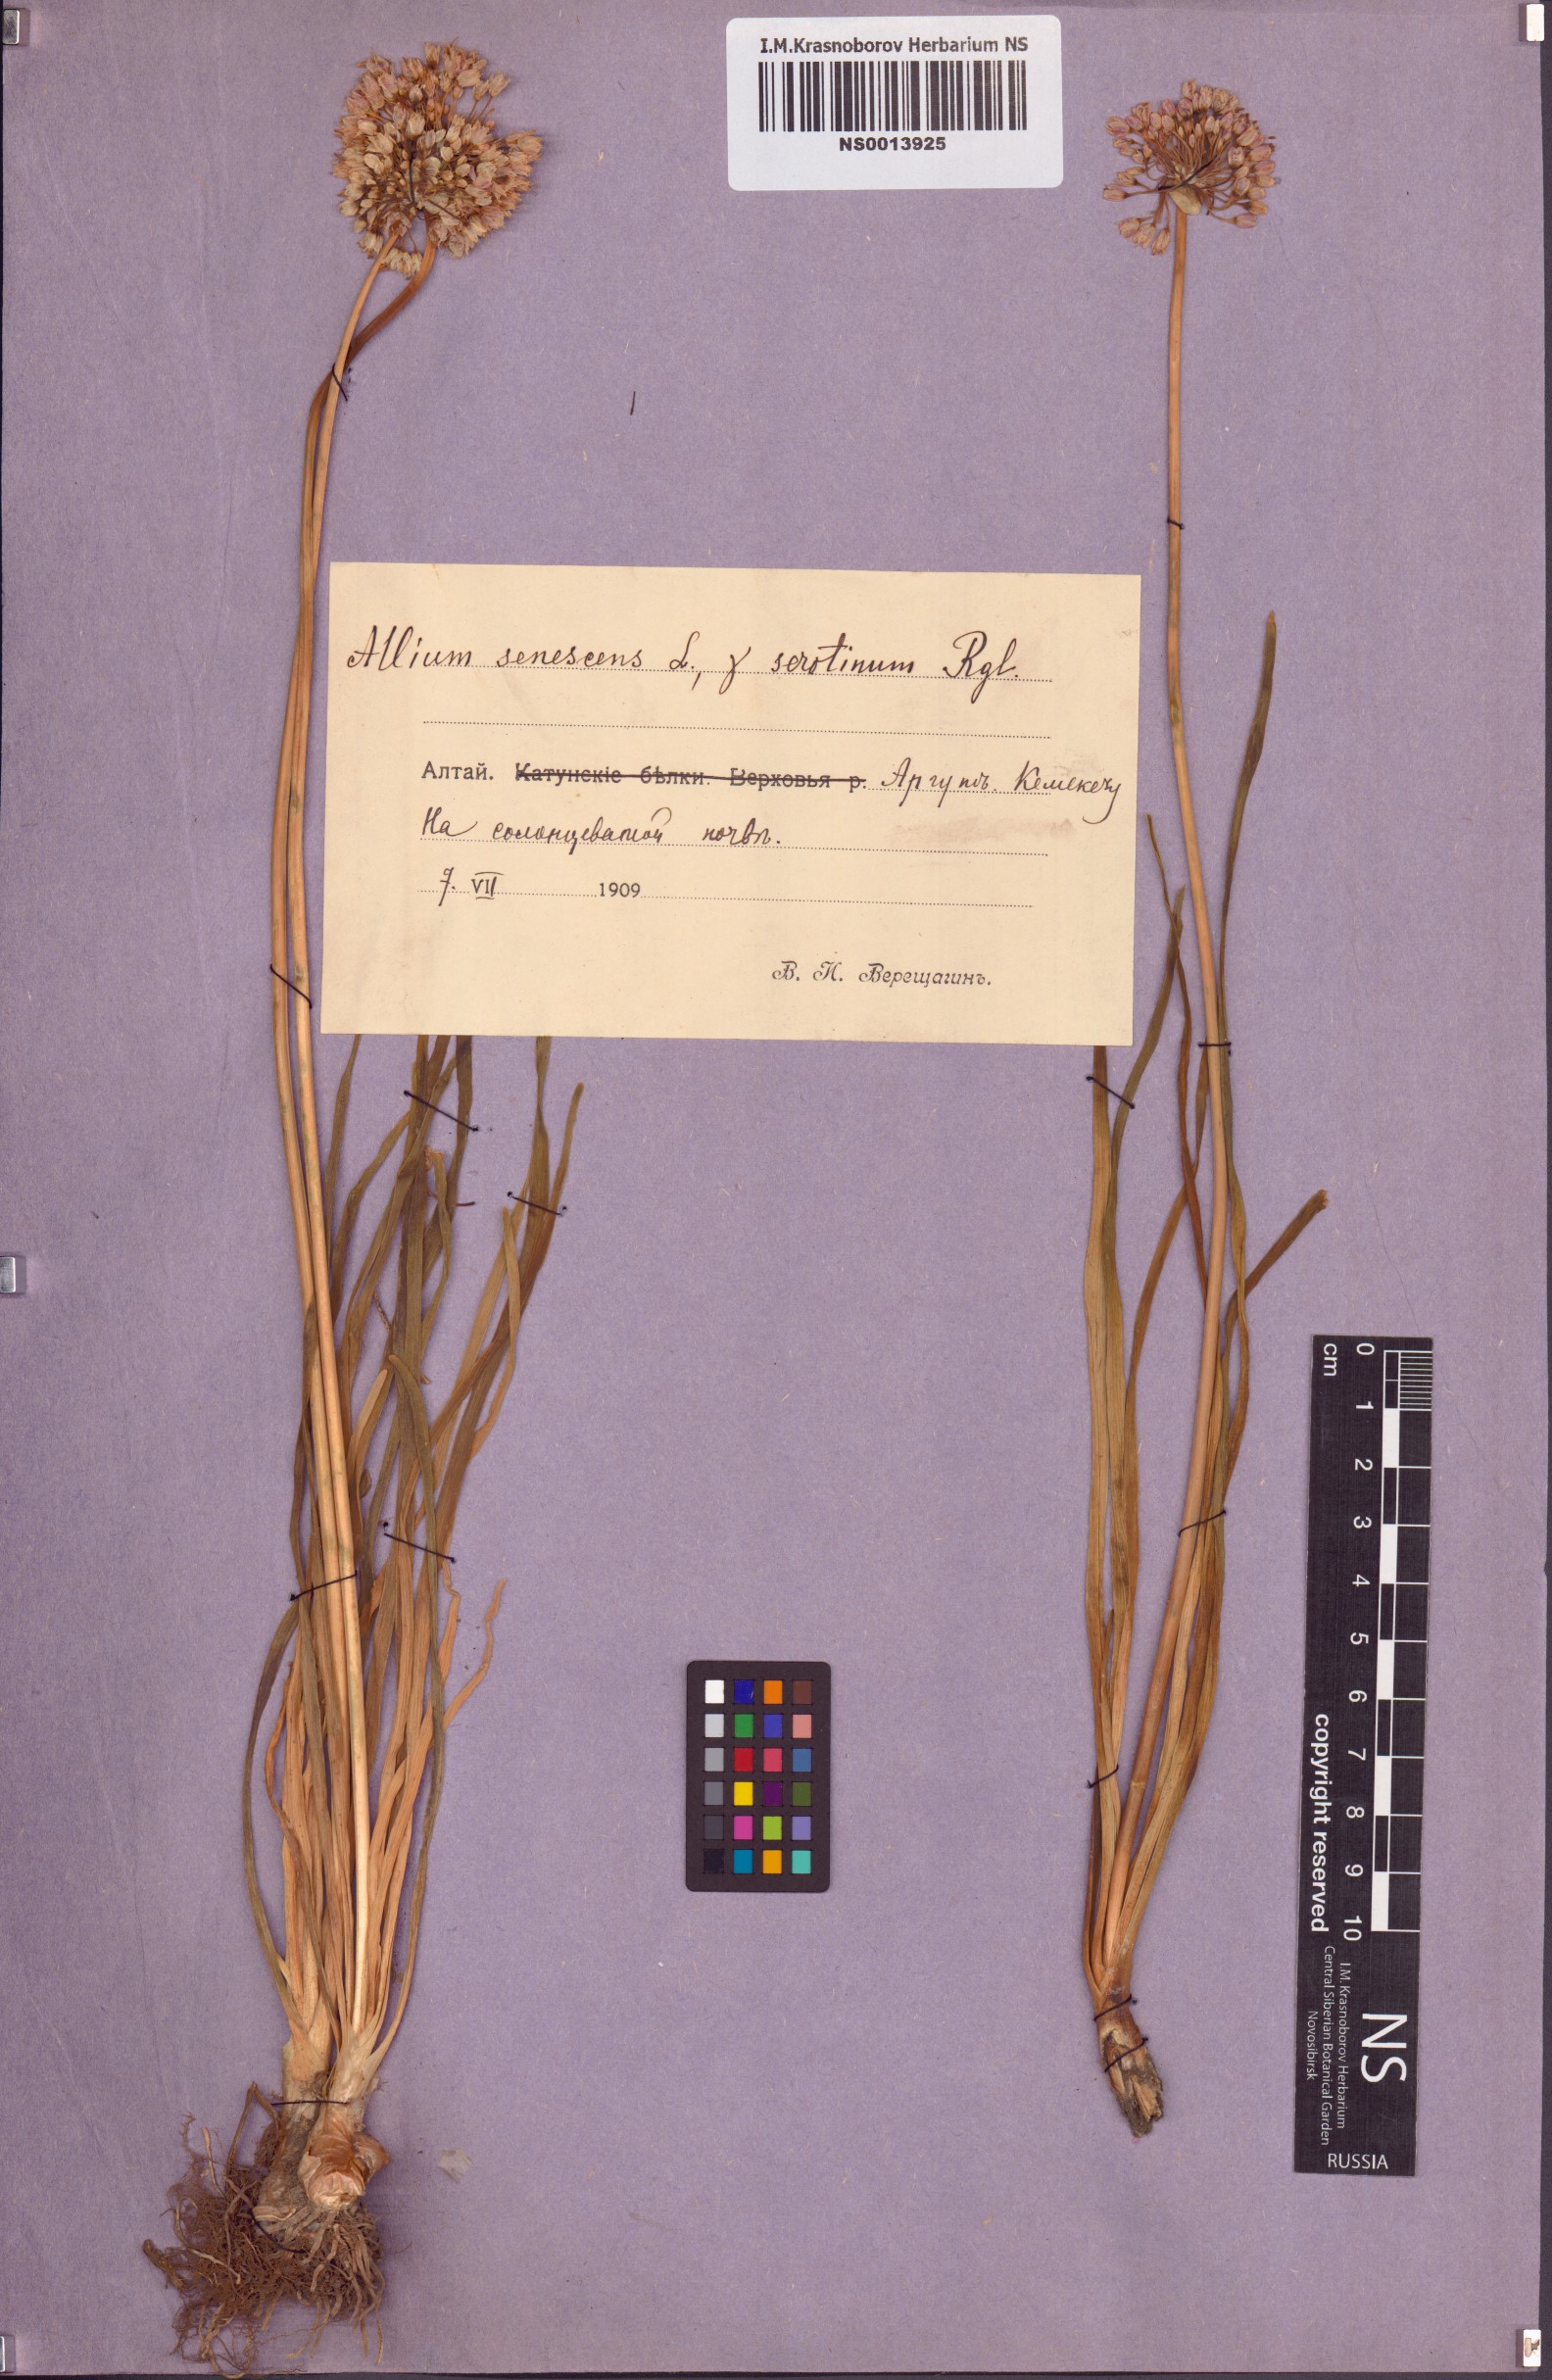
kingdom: Plantae
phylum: Tracheophyta
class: Liliopsida
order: Asparagales
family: Amaryllidaceae
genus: Allium
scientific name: Allium senescens
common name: German garlic
